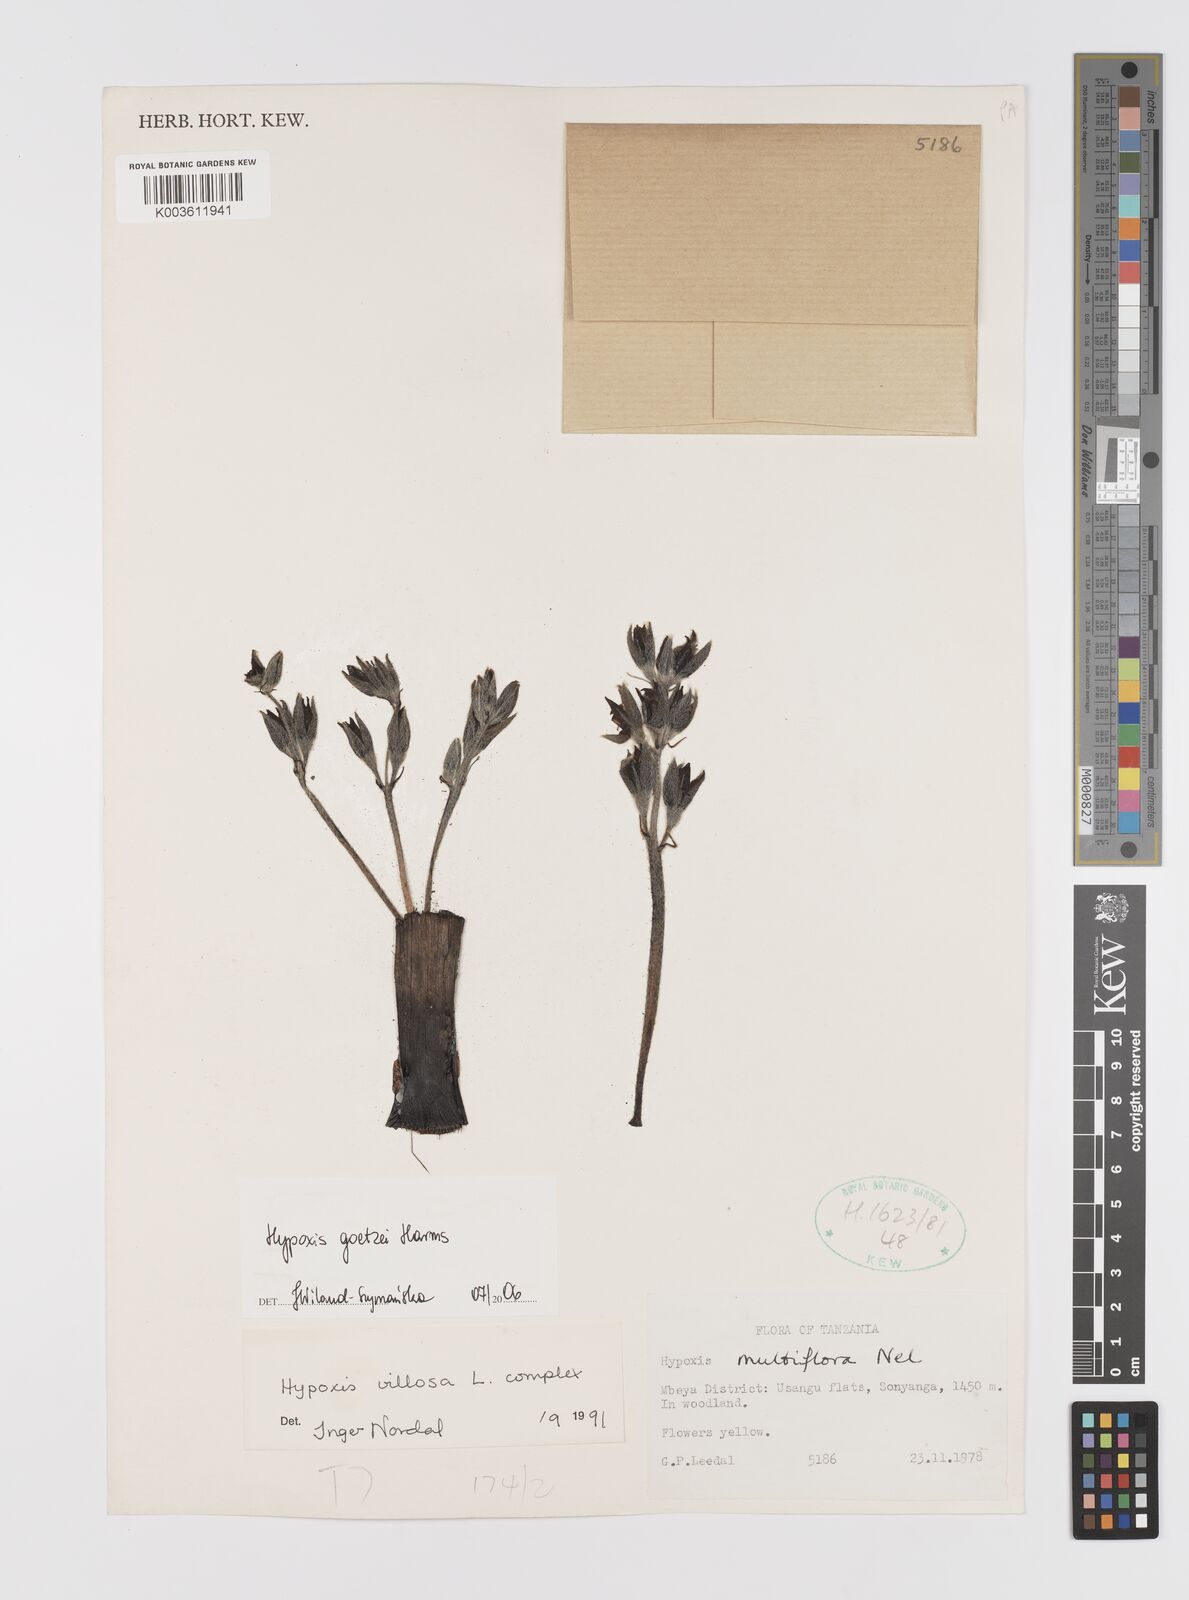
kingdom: Plantae
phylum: Tracheophyta
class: Liliopsida
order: Asparagales
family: Hypoxidaceae
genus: Hypoxis
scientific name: Hypoxis goetzei
